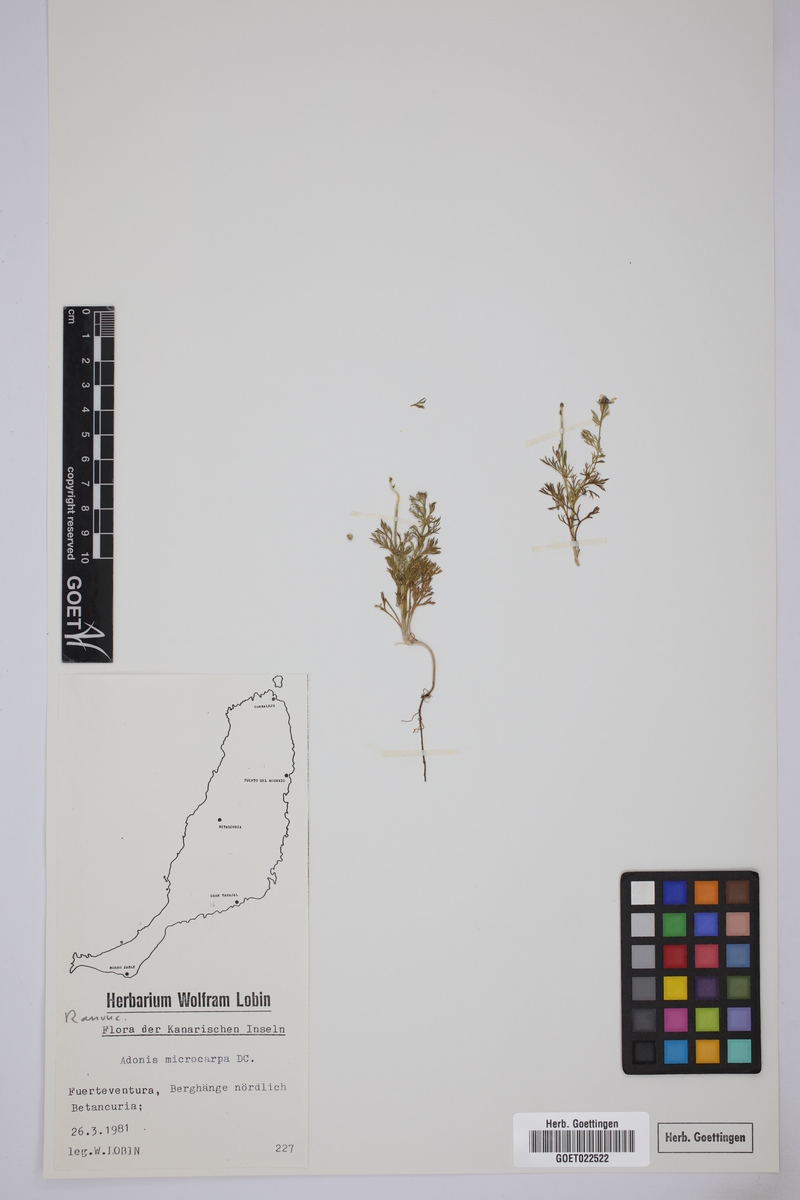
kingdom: Plantae
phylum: Tracheophyta
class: Magnoliopsida
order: Ranunculales
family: Ranunculaceae
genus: Adonis
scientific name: Adonis microcarpa
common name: Pheasant's-eye
